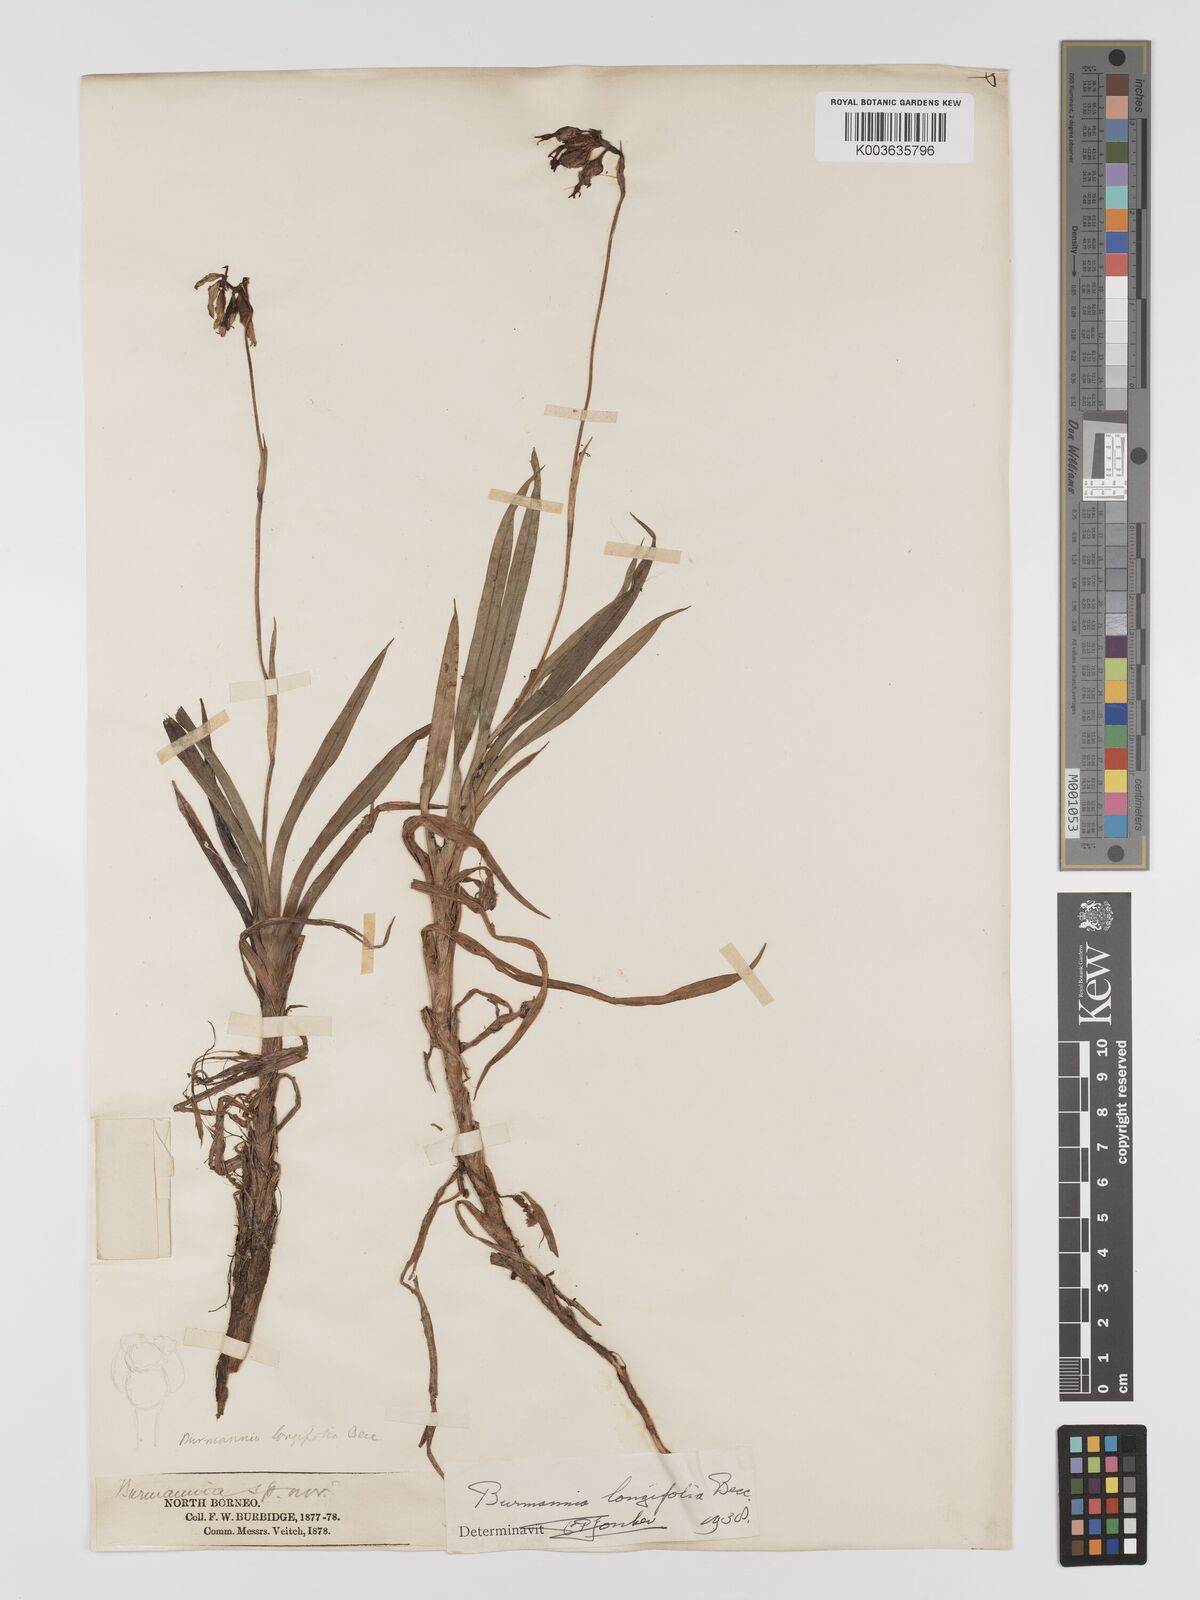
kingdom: Plantae
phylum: Tracheophyta
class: Liliopsida
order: Dioscoreales
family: Burmanniaceae
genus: Burmannia
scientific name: Burmannia longifolia
